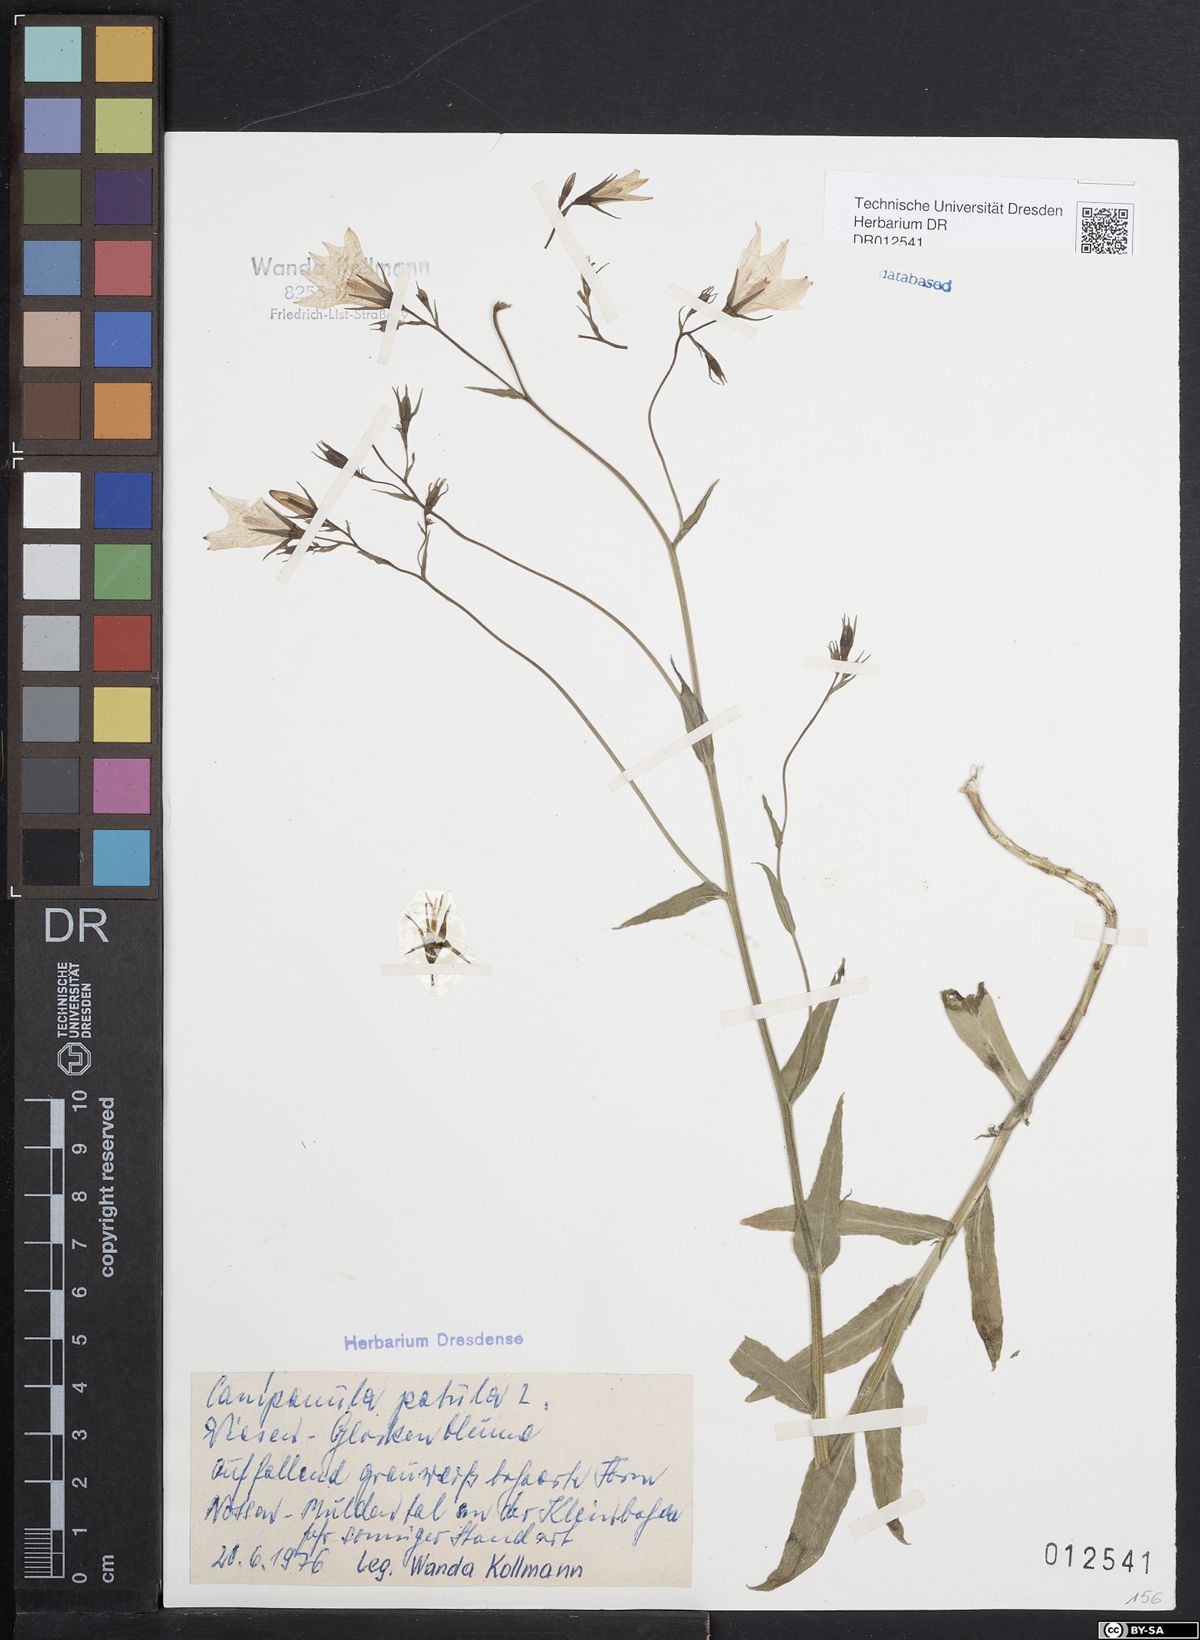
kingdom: Plantae
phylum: Tracheophyta
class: Magnoliopsida
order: Asterales
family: Campanulaceae
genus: Campanula
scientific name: Campanula patula
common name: Spreading bellflower
